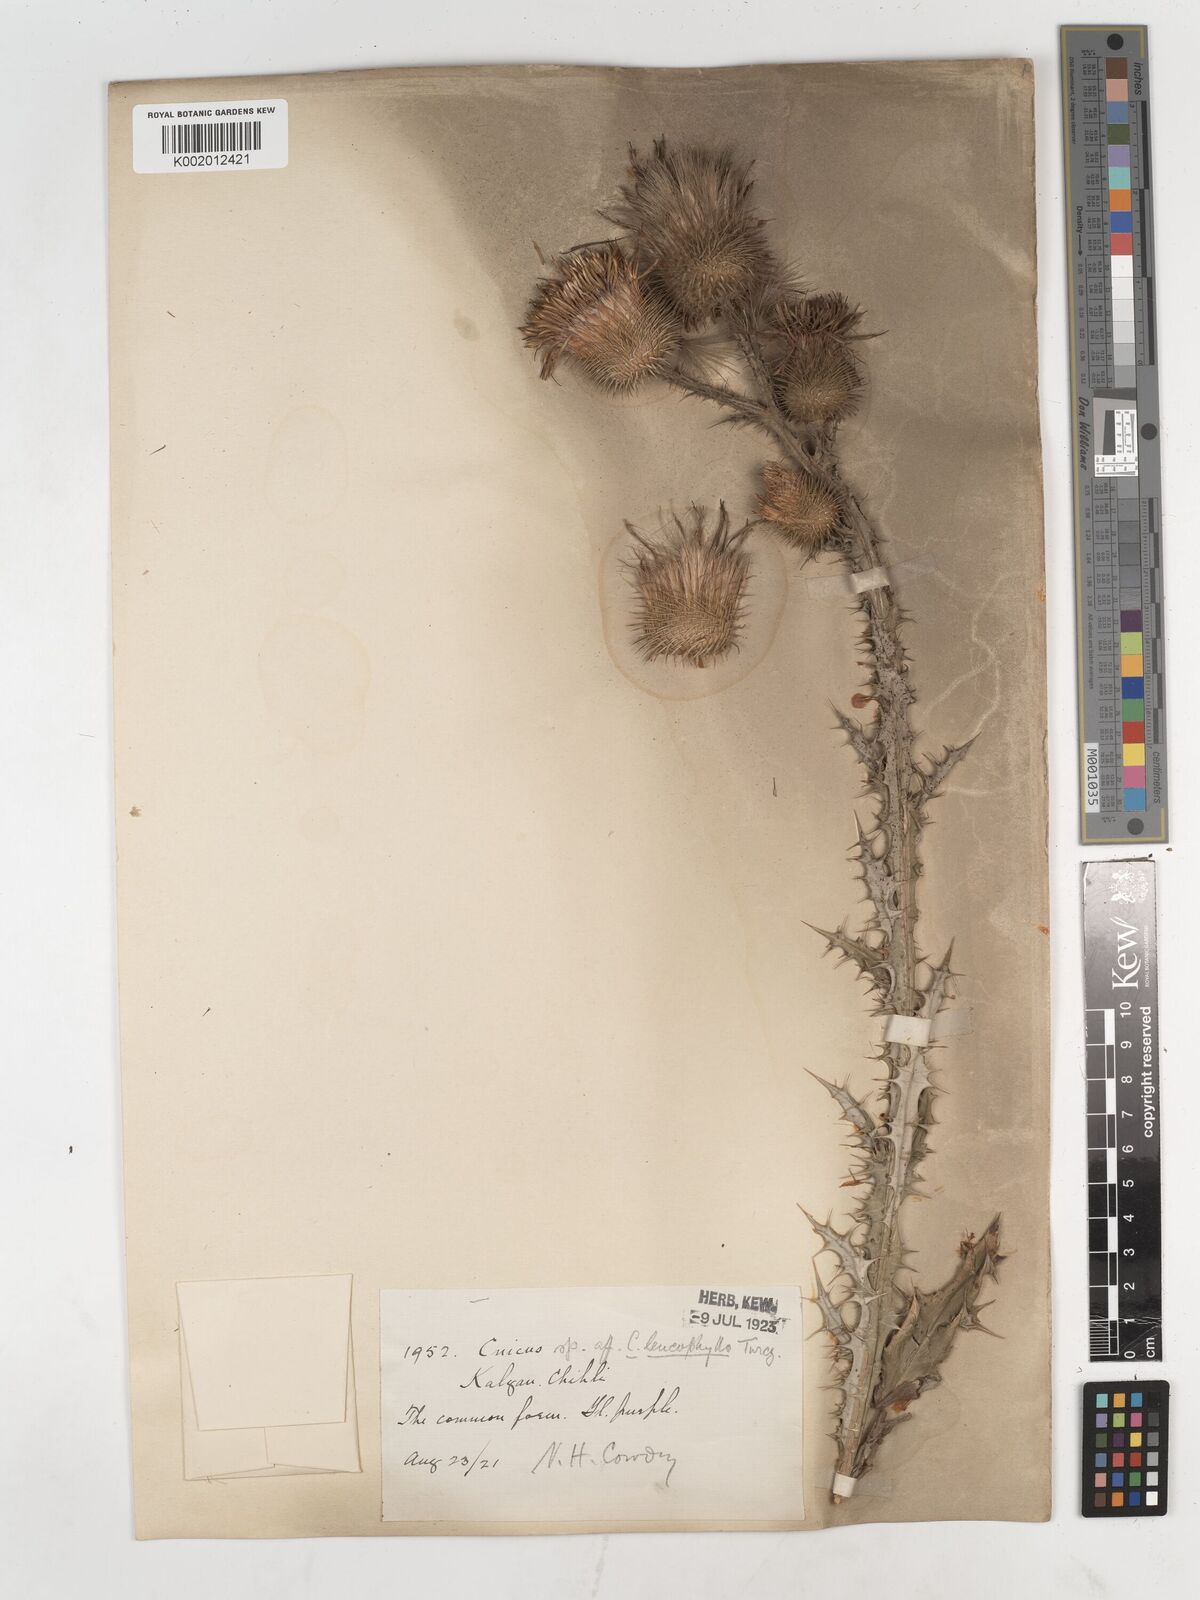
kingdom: Plantae
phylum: Tracheophyta
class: Magnoliopsida
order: Asterales
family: Asteraceae
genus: Cirsium
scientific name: Cirsium
